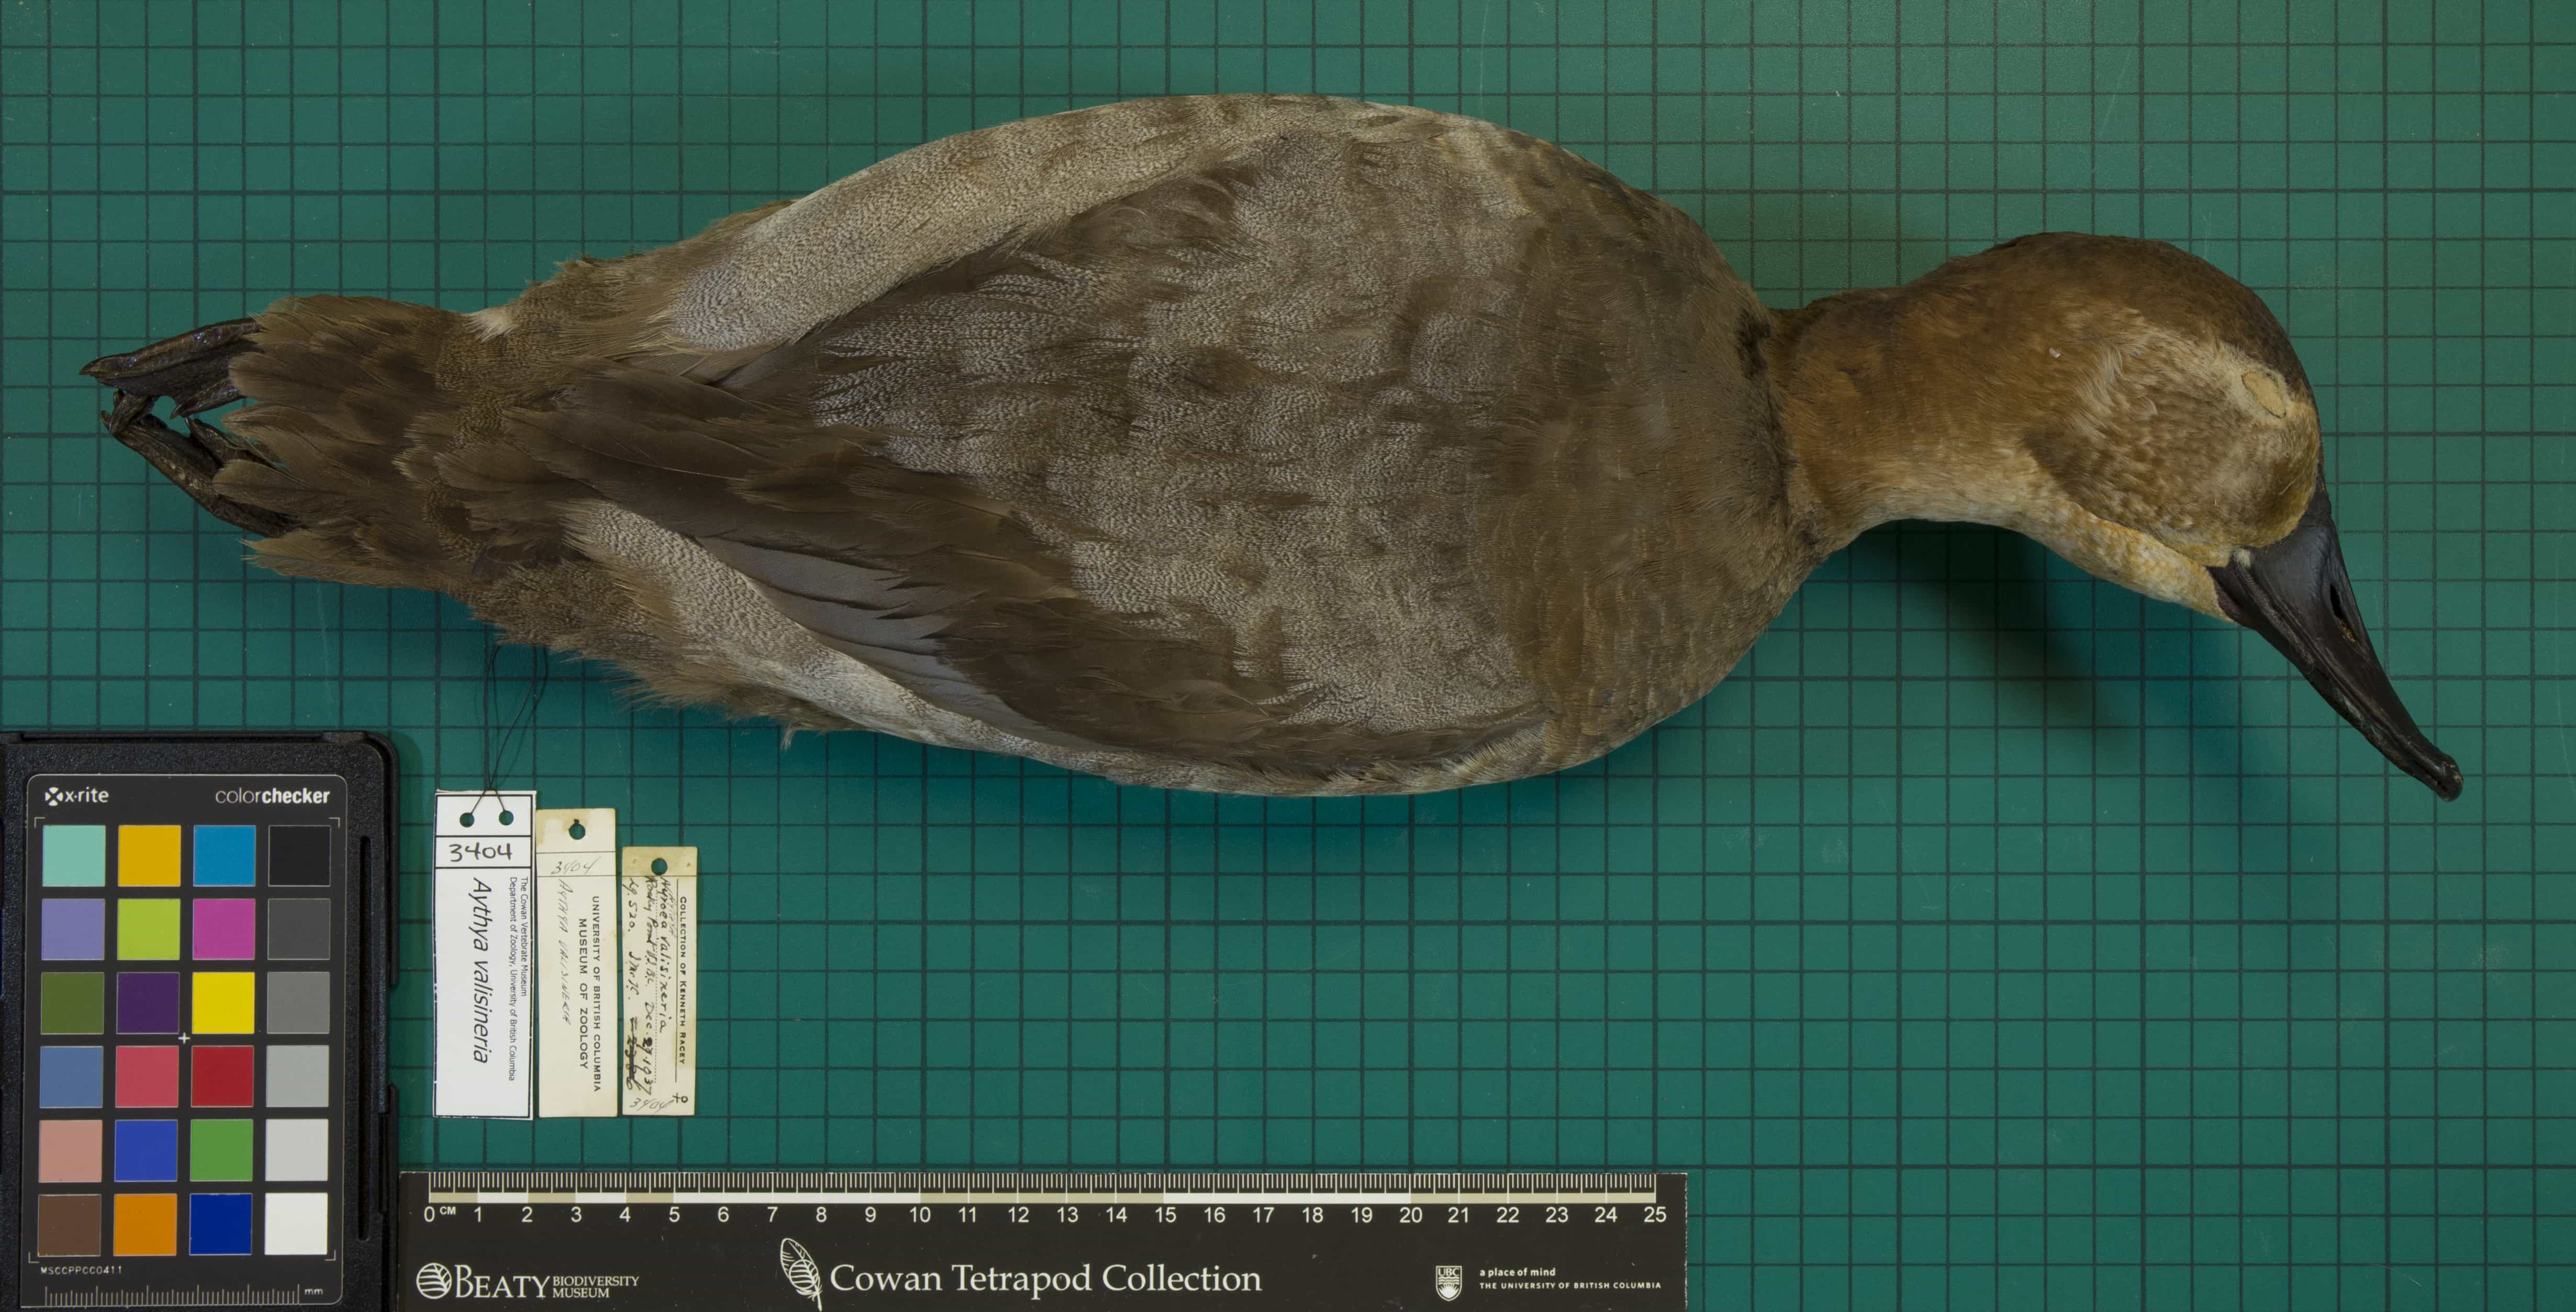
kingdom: Animalia
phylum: Chordata
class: Aves
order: Anseriformes
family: Anatidae
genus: Aythya
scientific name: Aythya valisineria
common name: Canvasback
